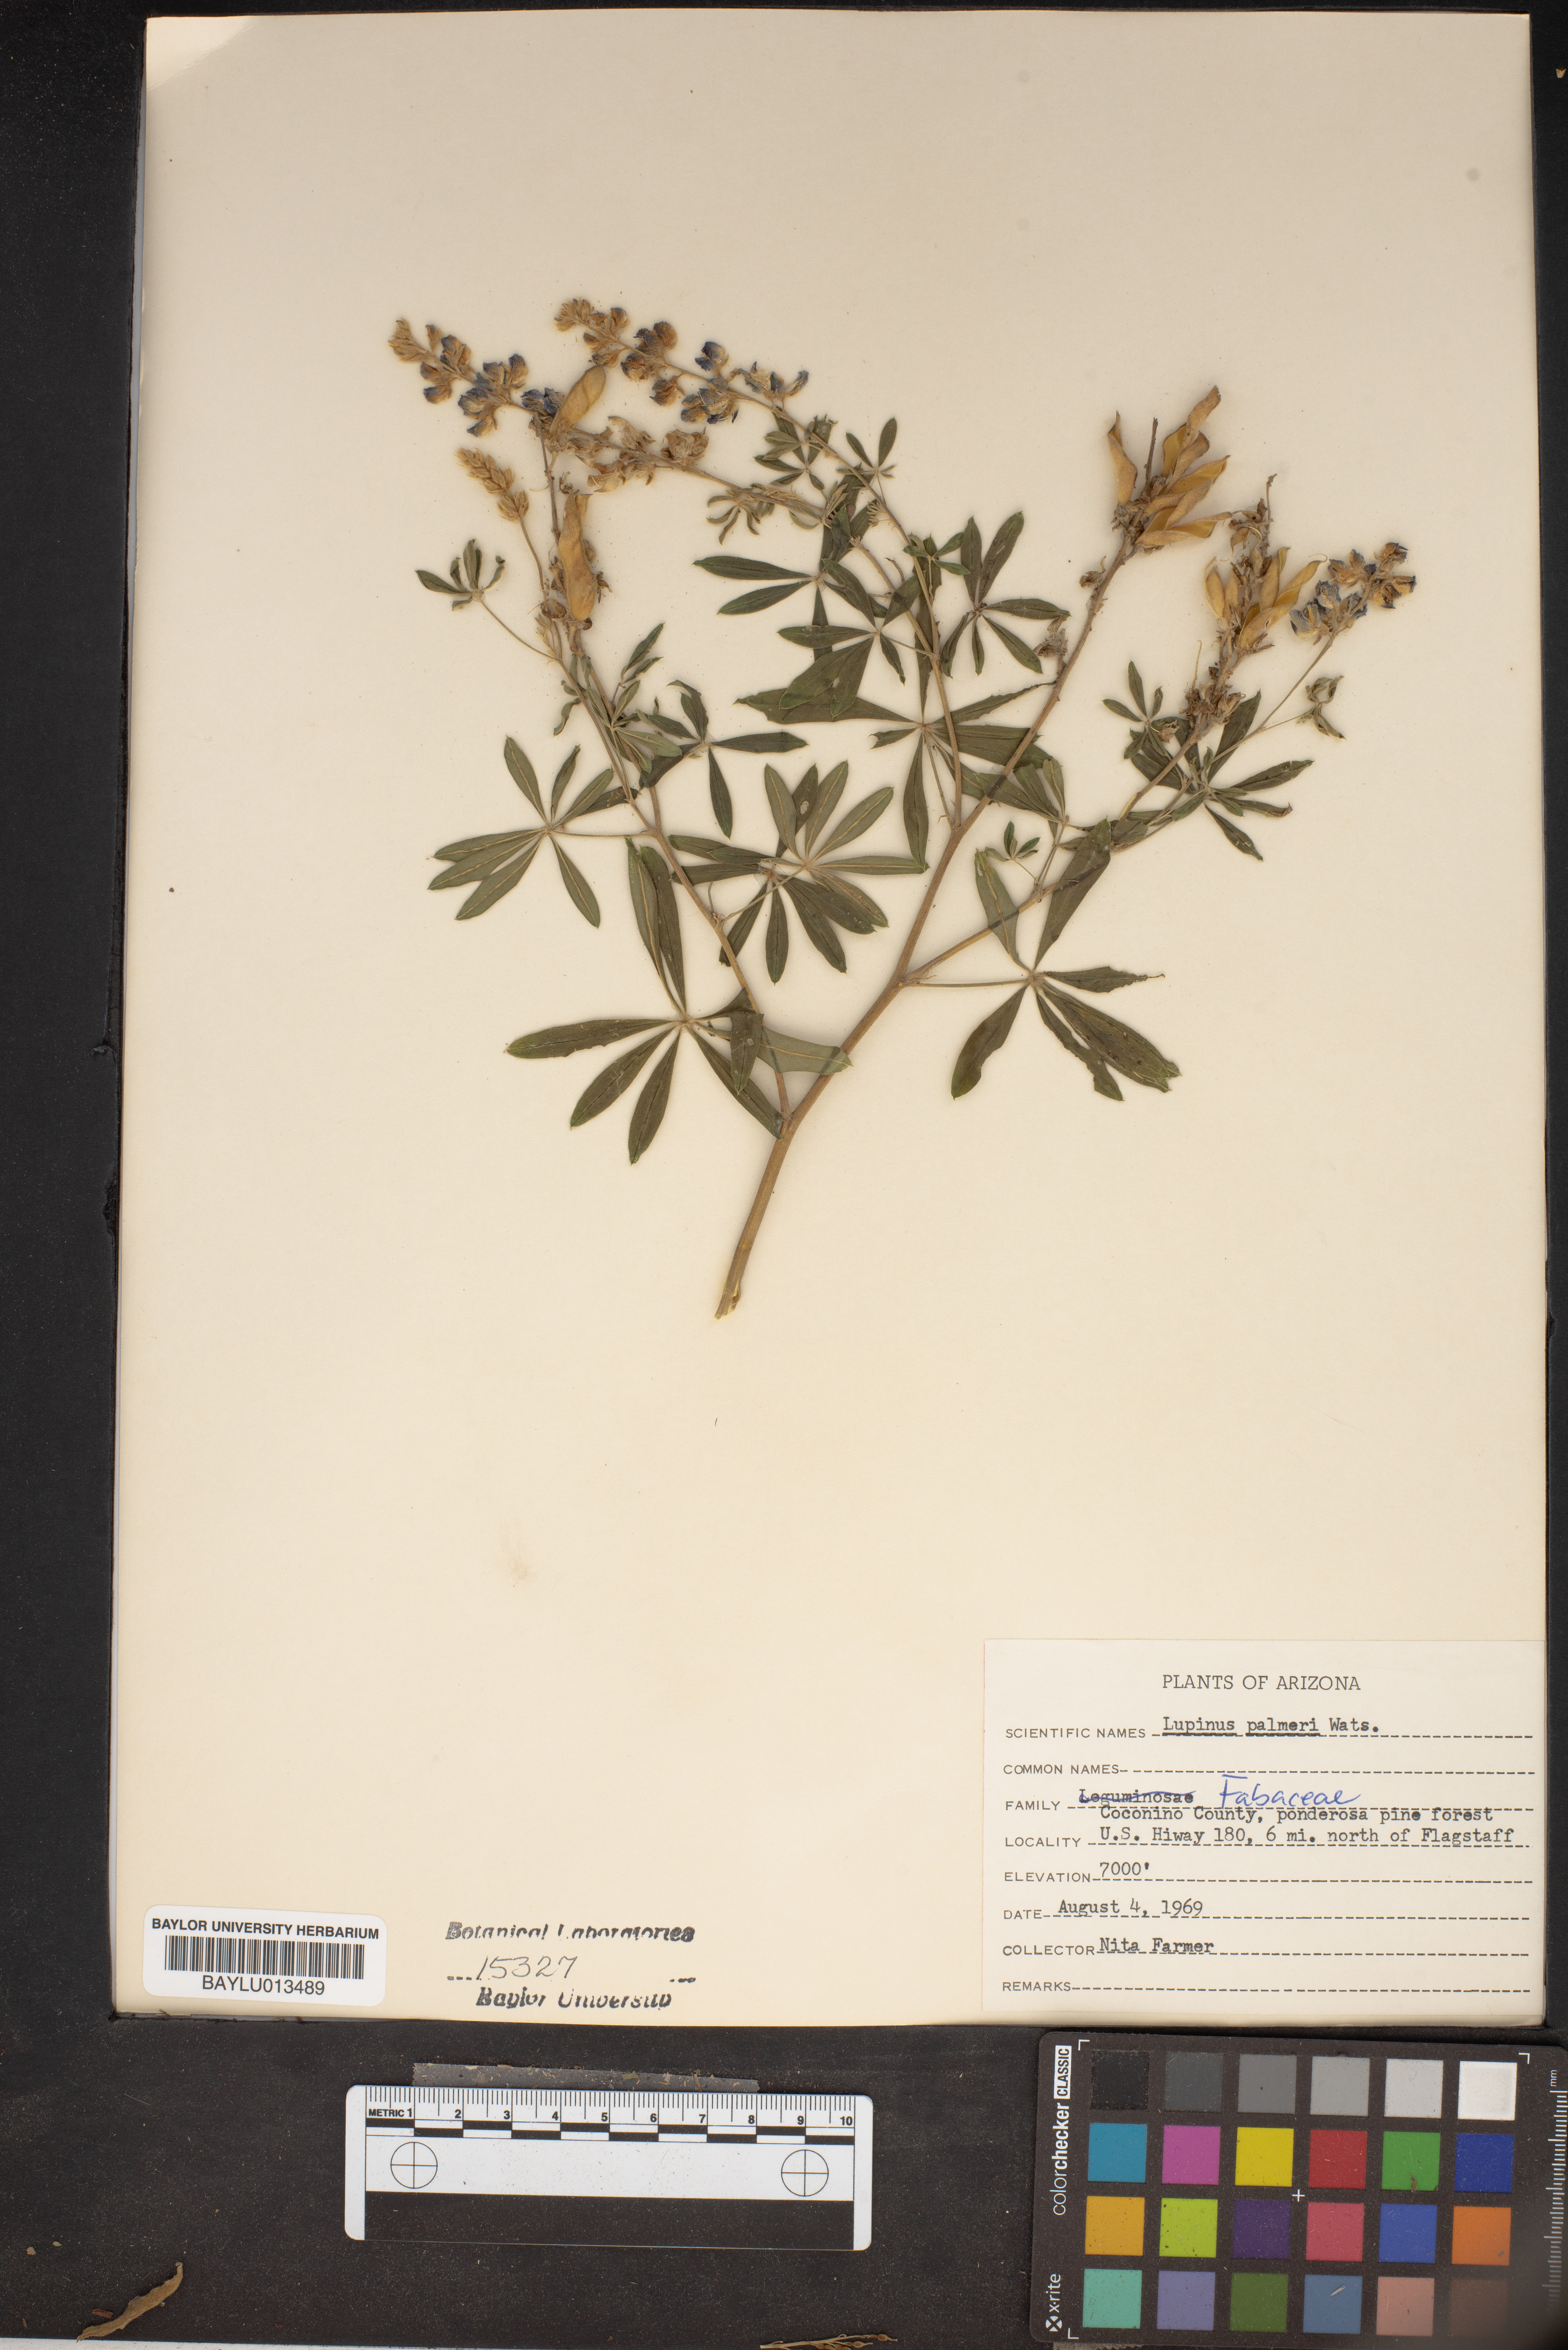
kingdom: Plantae
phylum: Tracheophyta
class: Magnoliopsida
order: Fabales
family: Fabaceae
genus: Lupinus
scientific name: Lupinus argenteus
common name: Silvery lupine
